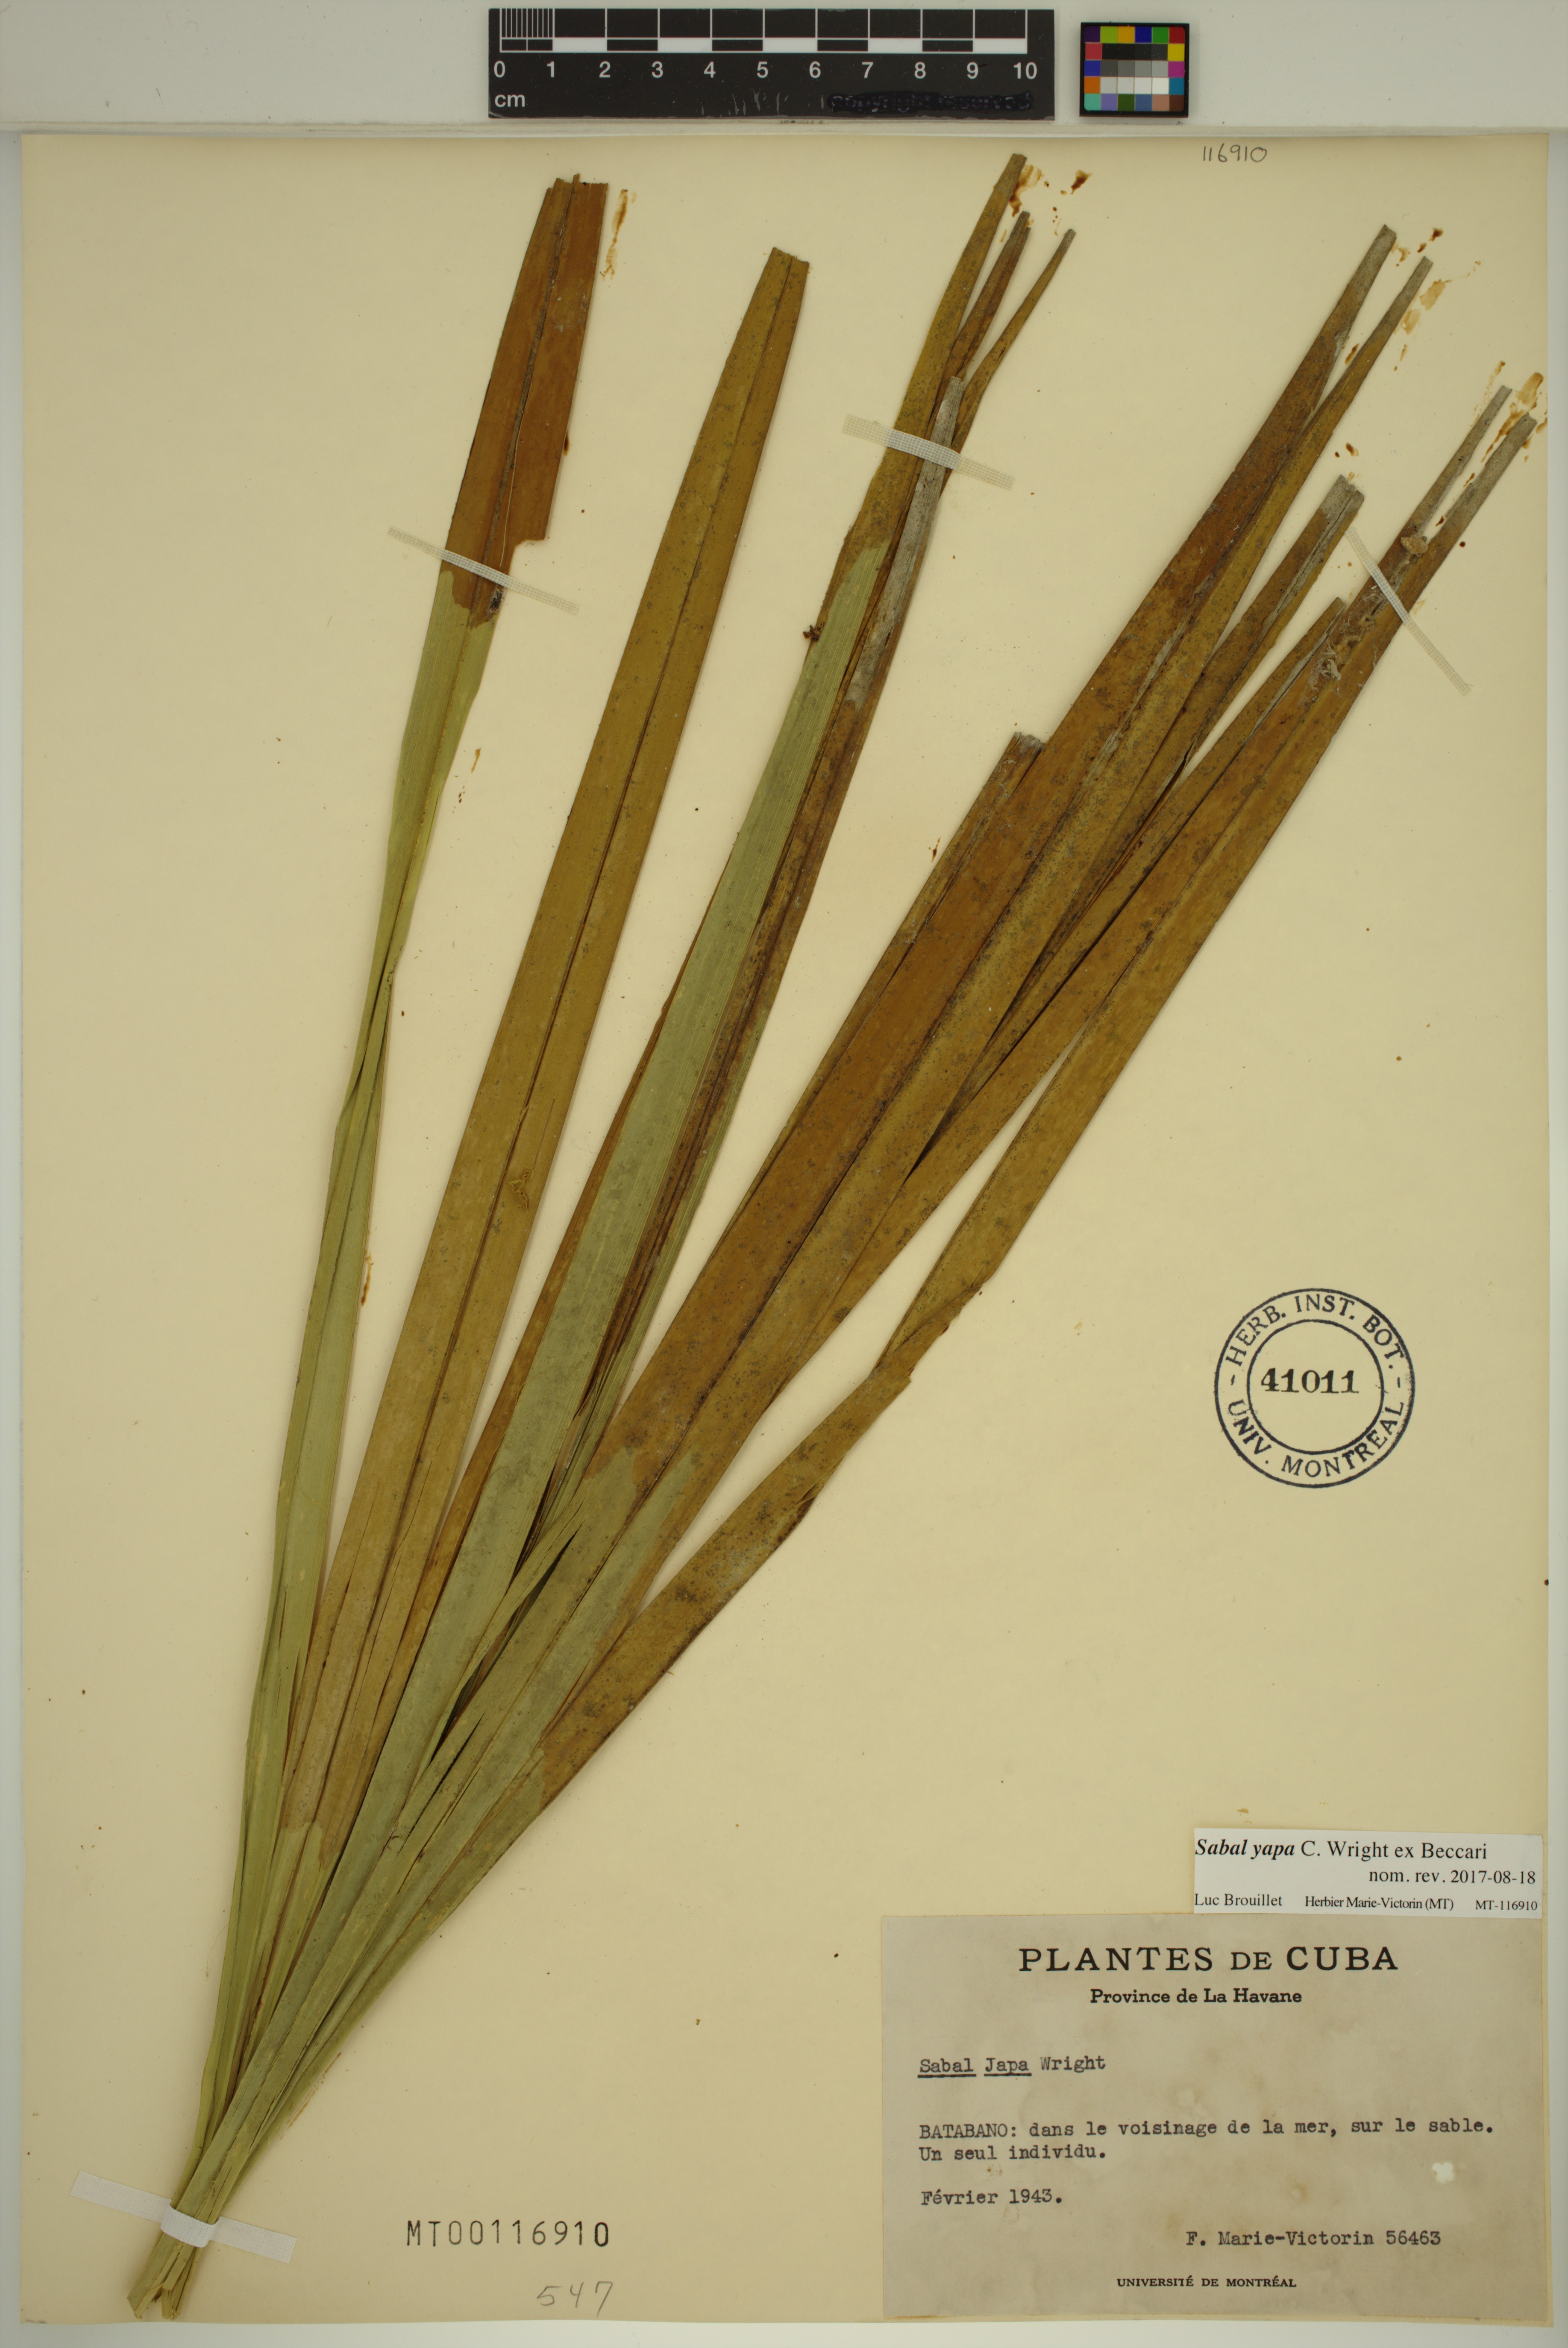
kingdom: Plantae
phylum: Tracheophyta
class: Liliopsida
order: Arecales
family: Arecaceae
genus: Sabal
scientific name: Sabal yapa
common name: Thatch palm
